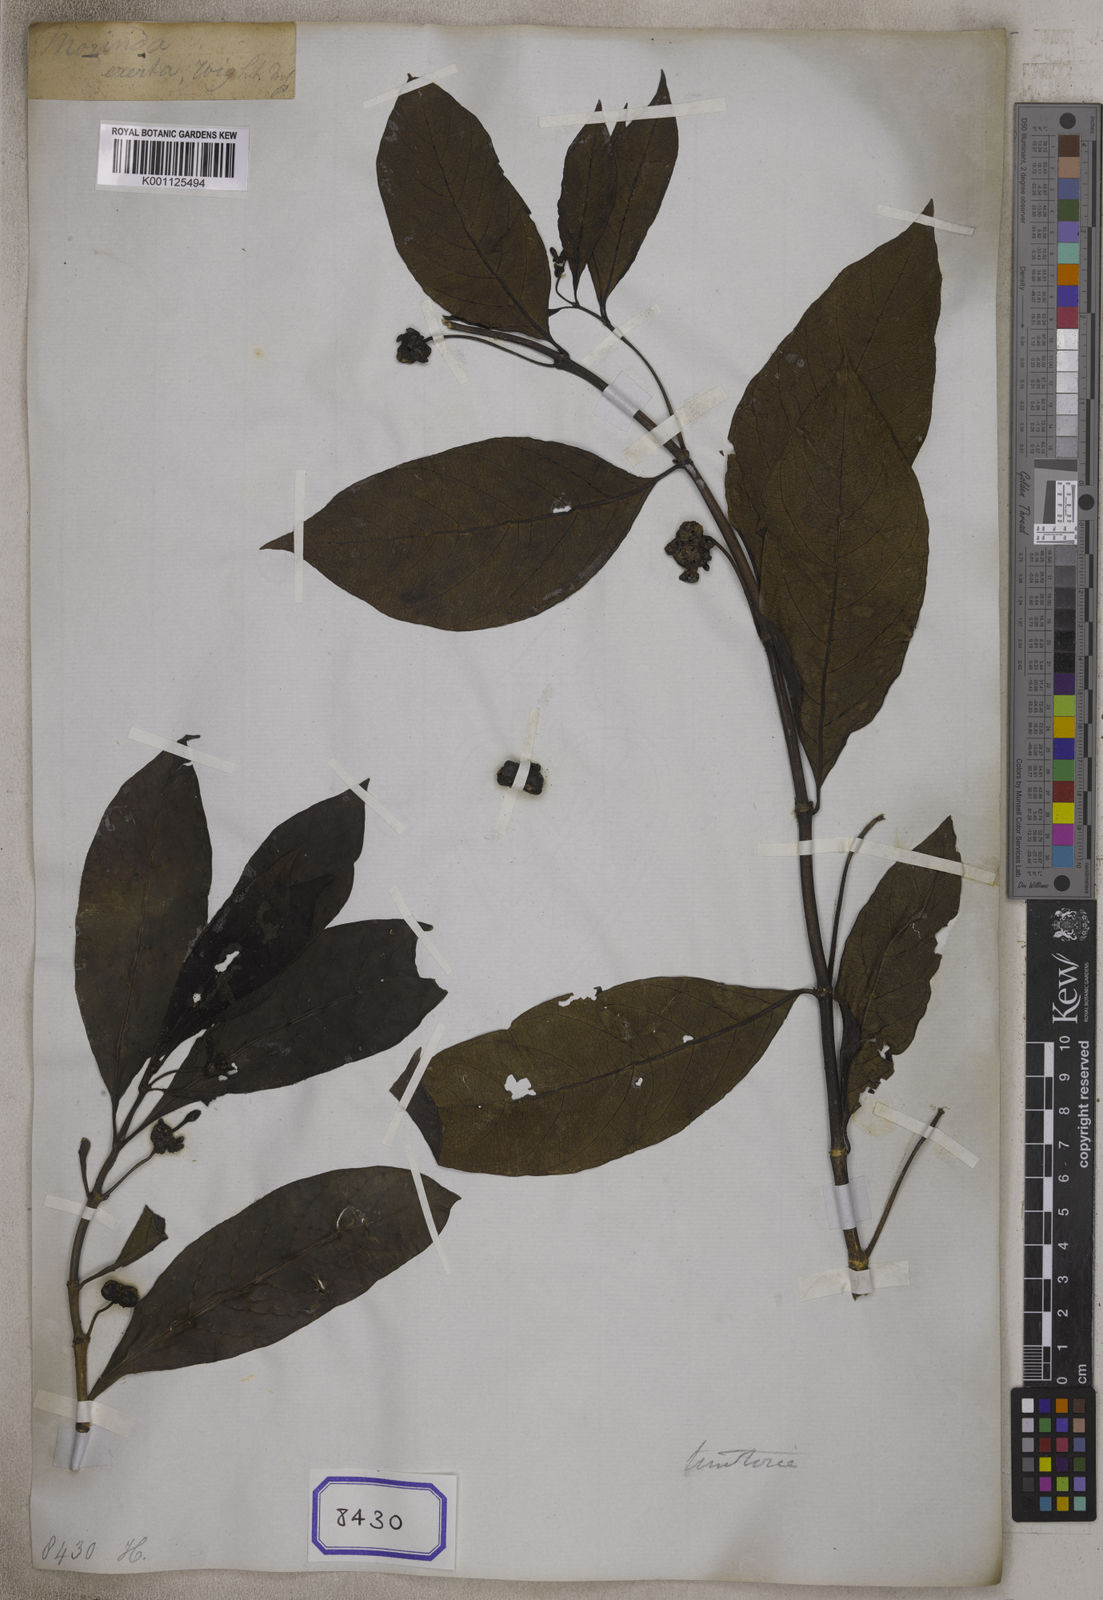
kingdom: Plantae
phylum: Tracheophyta
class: Magnoliopsida
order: Gentianales
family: Rubiaceae
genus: Morinda
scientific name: Morinda
